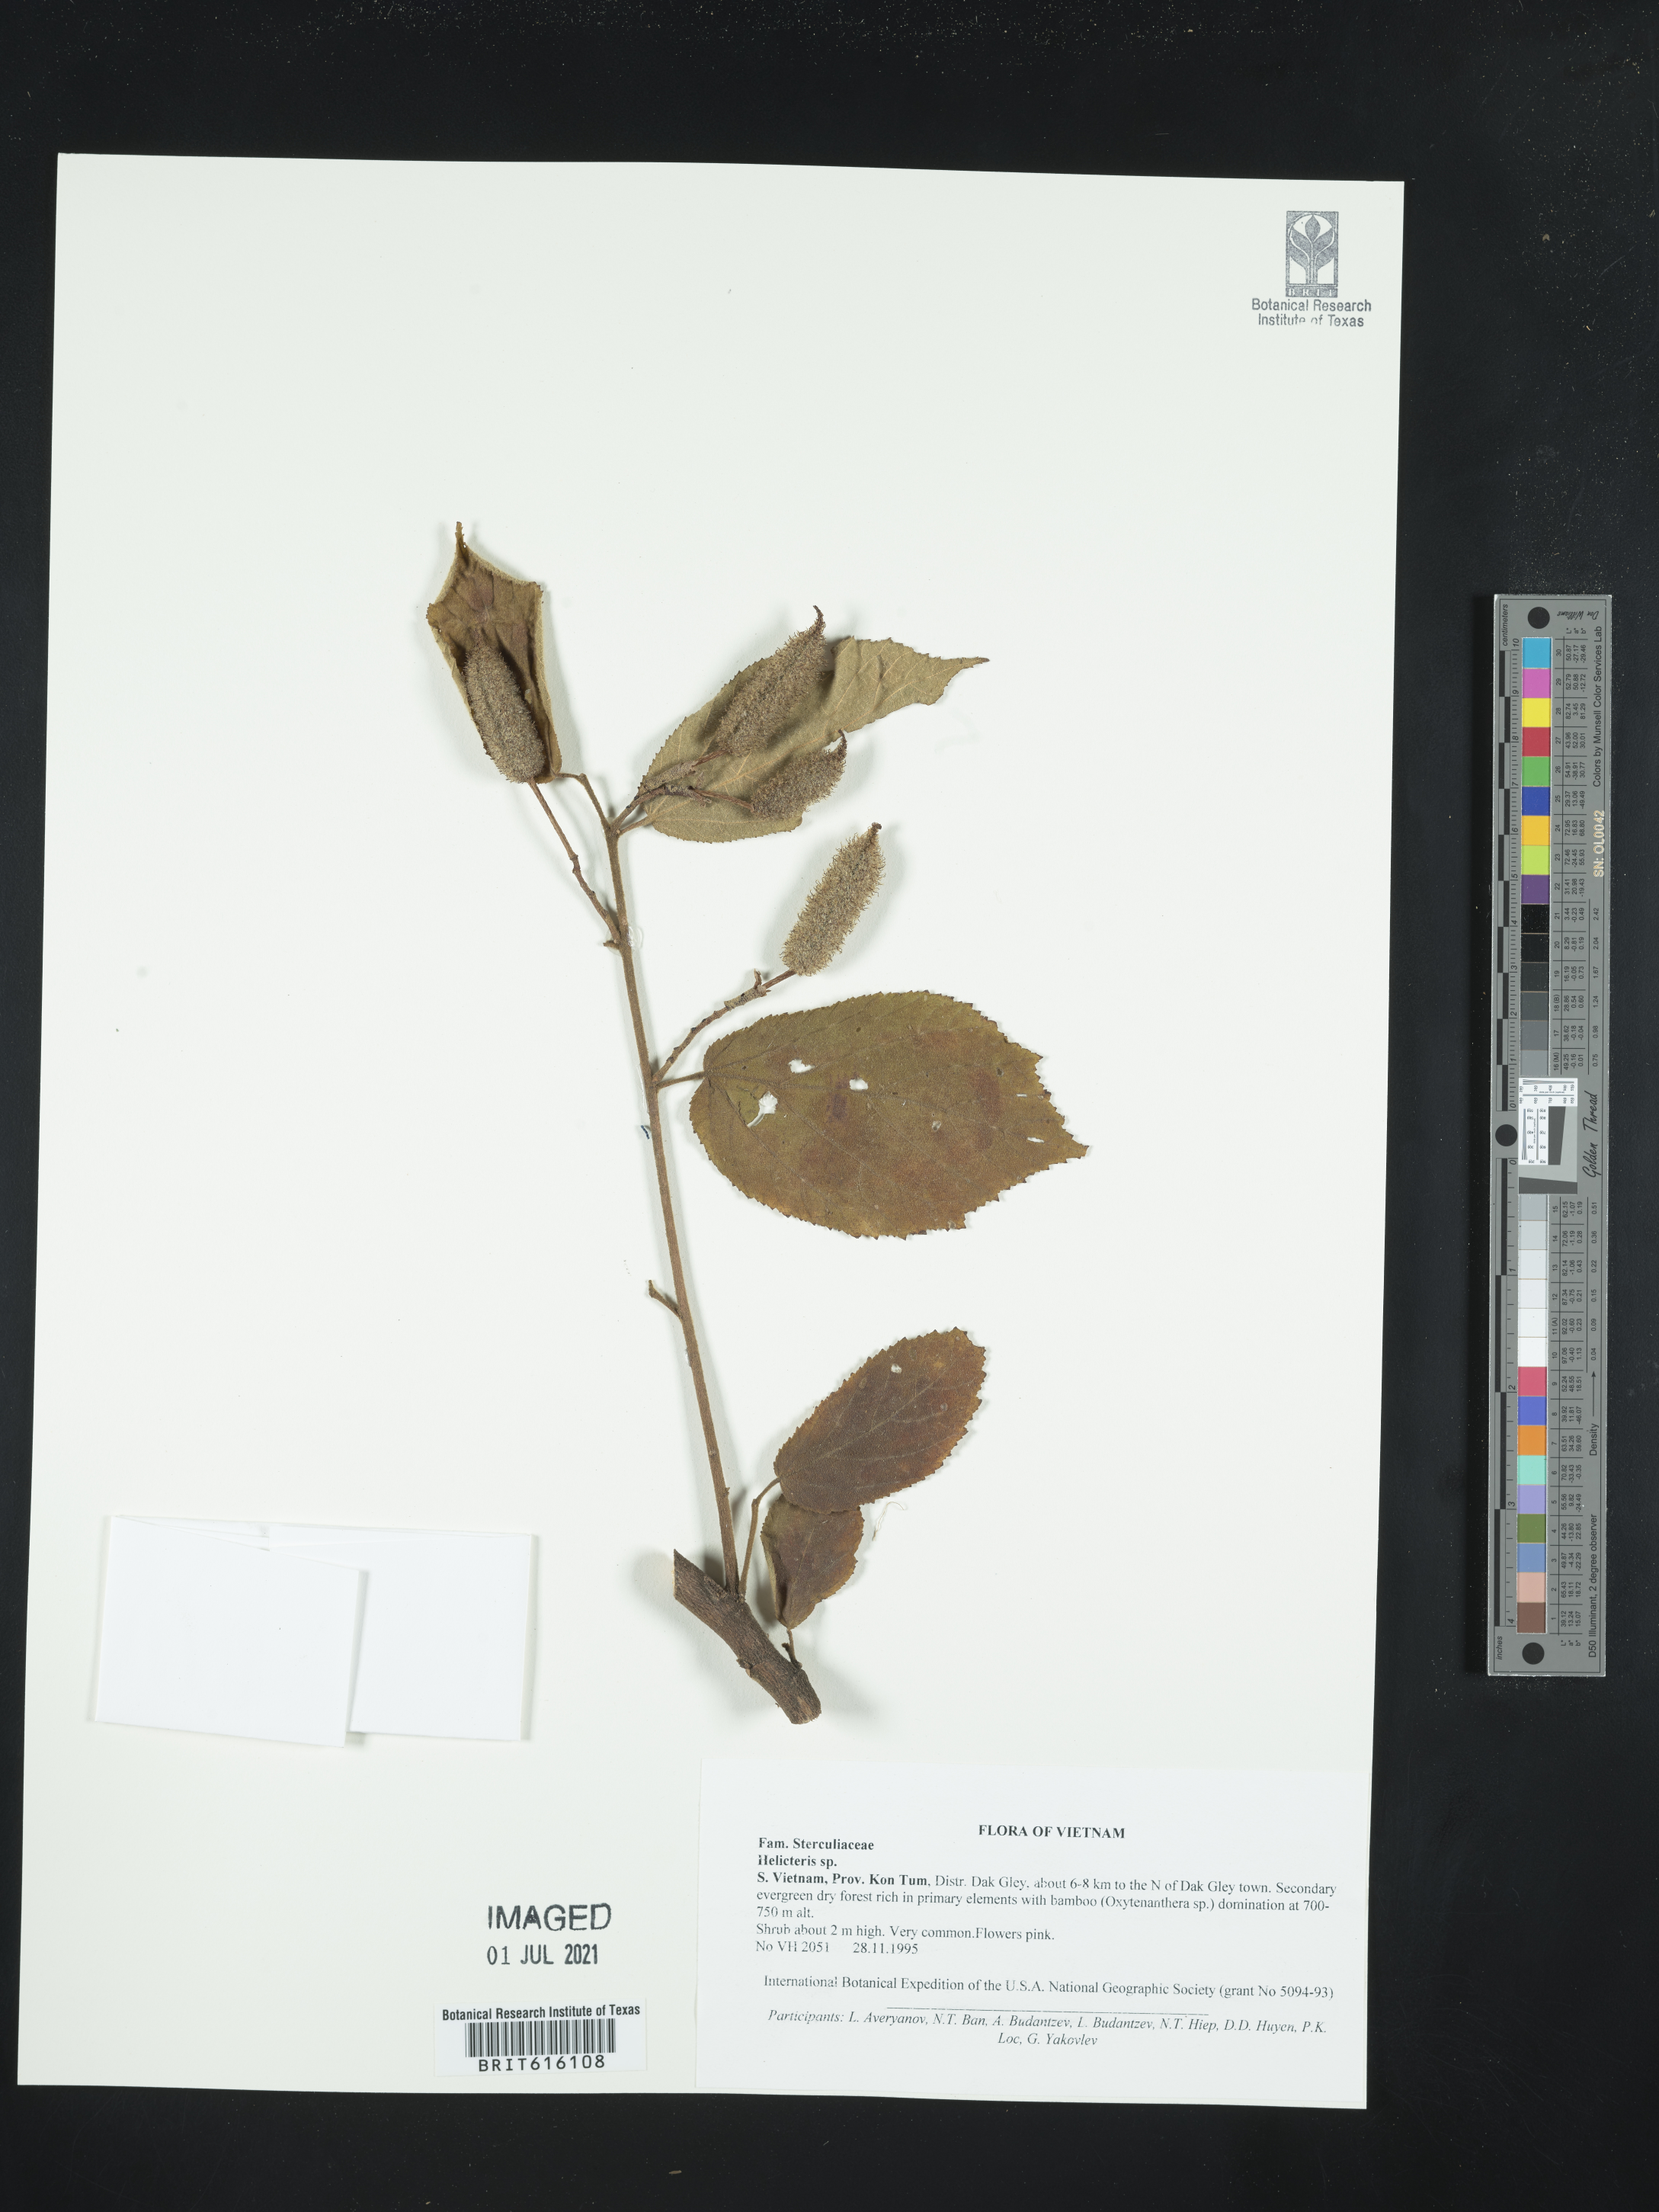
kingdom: Plantae
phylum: Tracheophyta
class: Magnoliopsida
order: Malvales
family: Malvaceae
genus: Helicteres
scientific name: Helicteres
